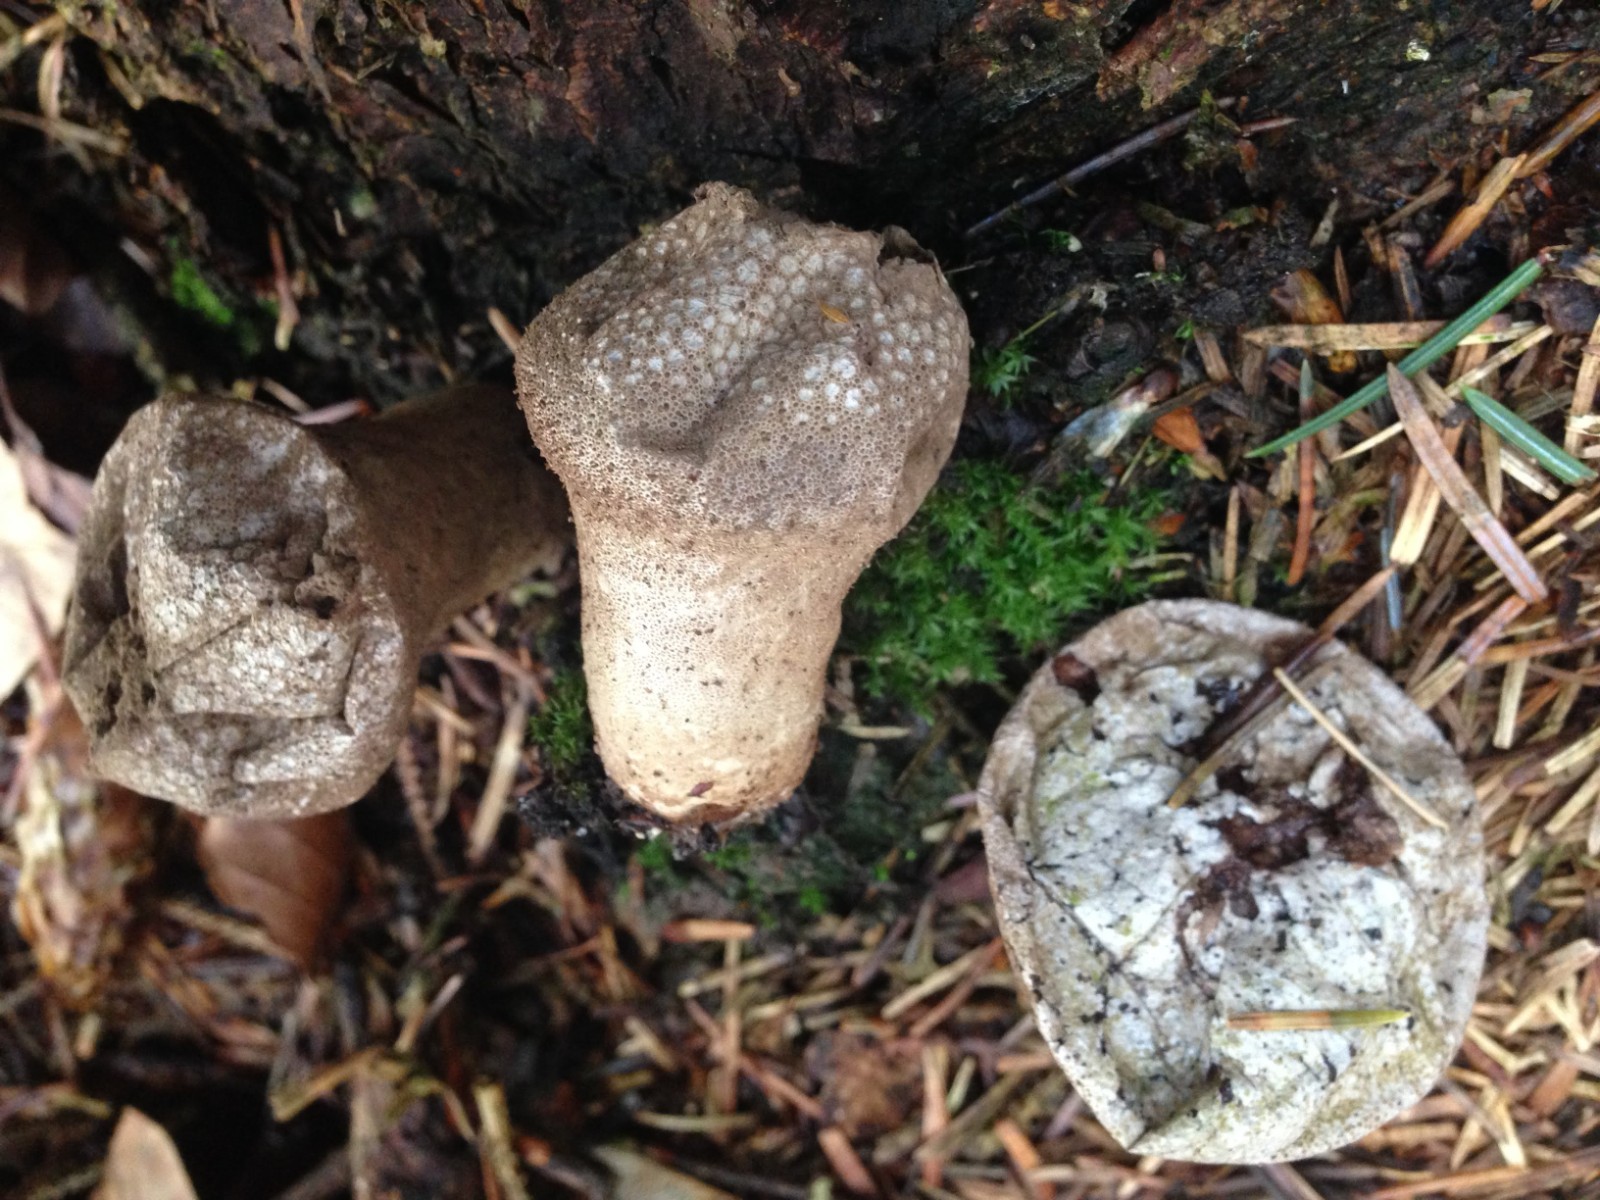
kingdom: Fungi
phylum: Basidiomycota
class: Agaricomycetes
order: Agaricales
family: Lycoperdaceae
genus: Lycoperdon
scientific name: Lycoperdon perlatum
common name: krystal-støvbold
